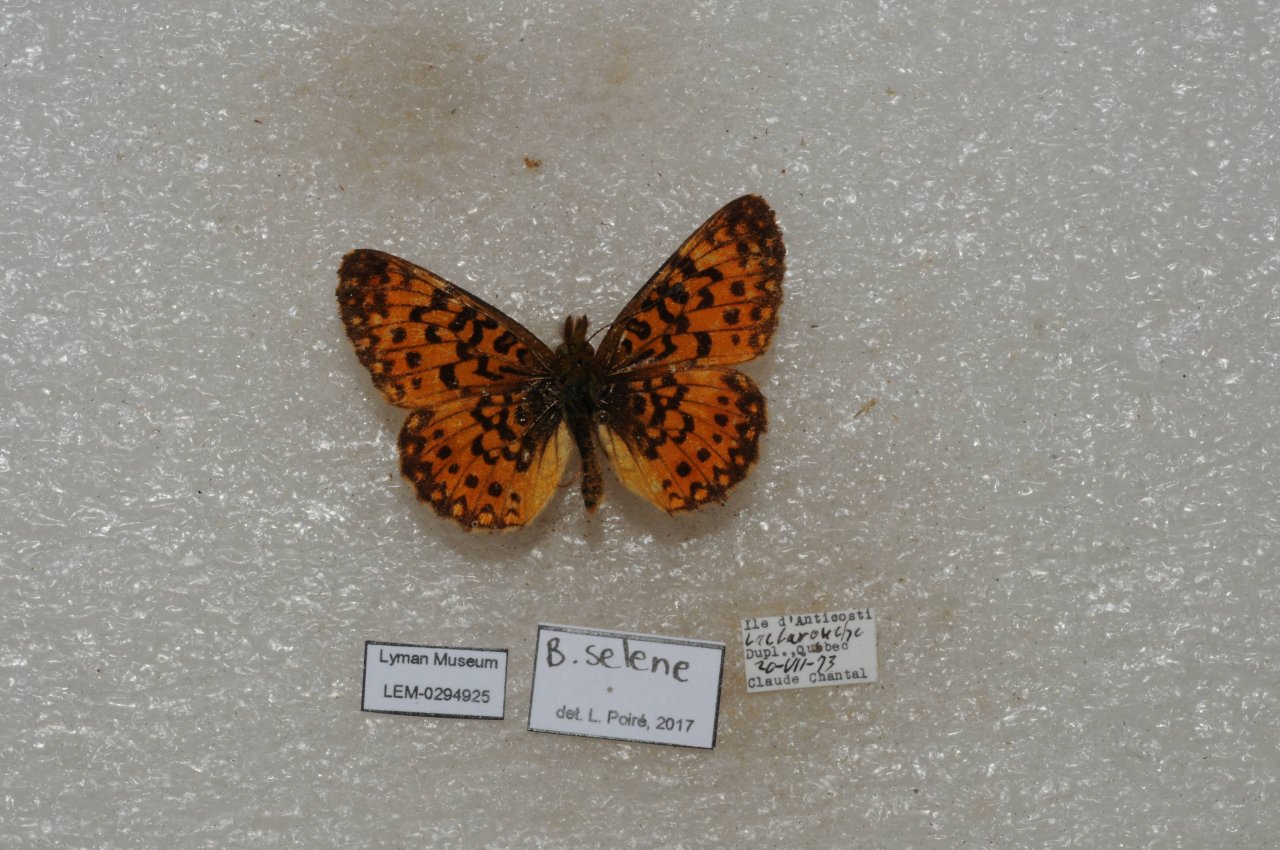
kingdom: Animalia
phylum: Arthropoda
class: Insecta
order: Lepidoptera
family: Nymphalidae
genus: Boloria
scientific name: Boloria selene
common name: Silver-bordered Fritillary
